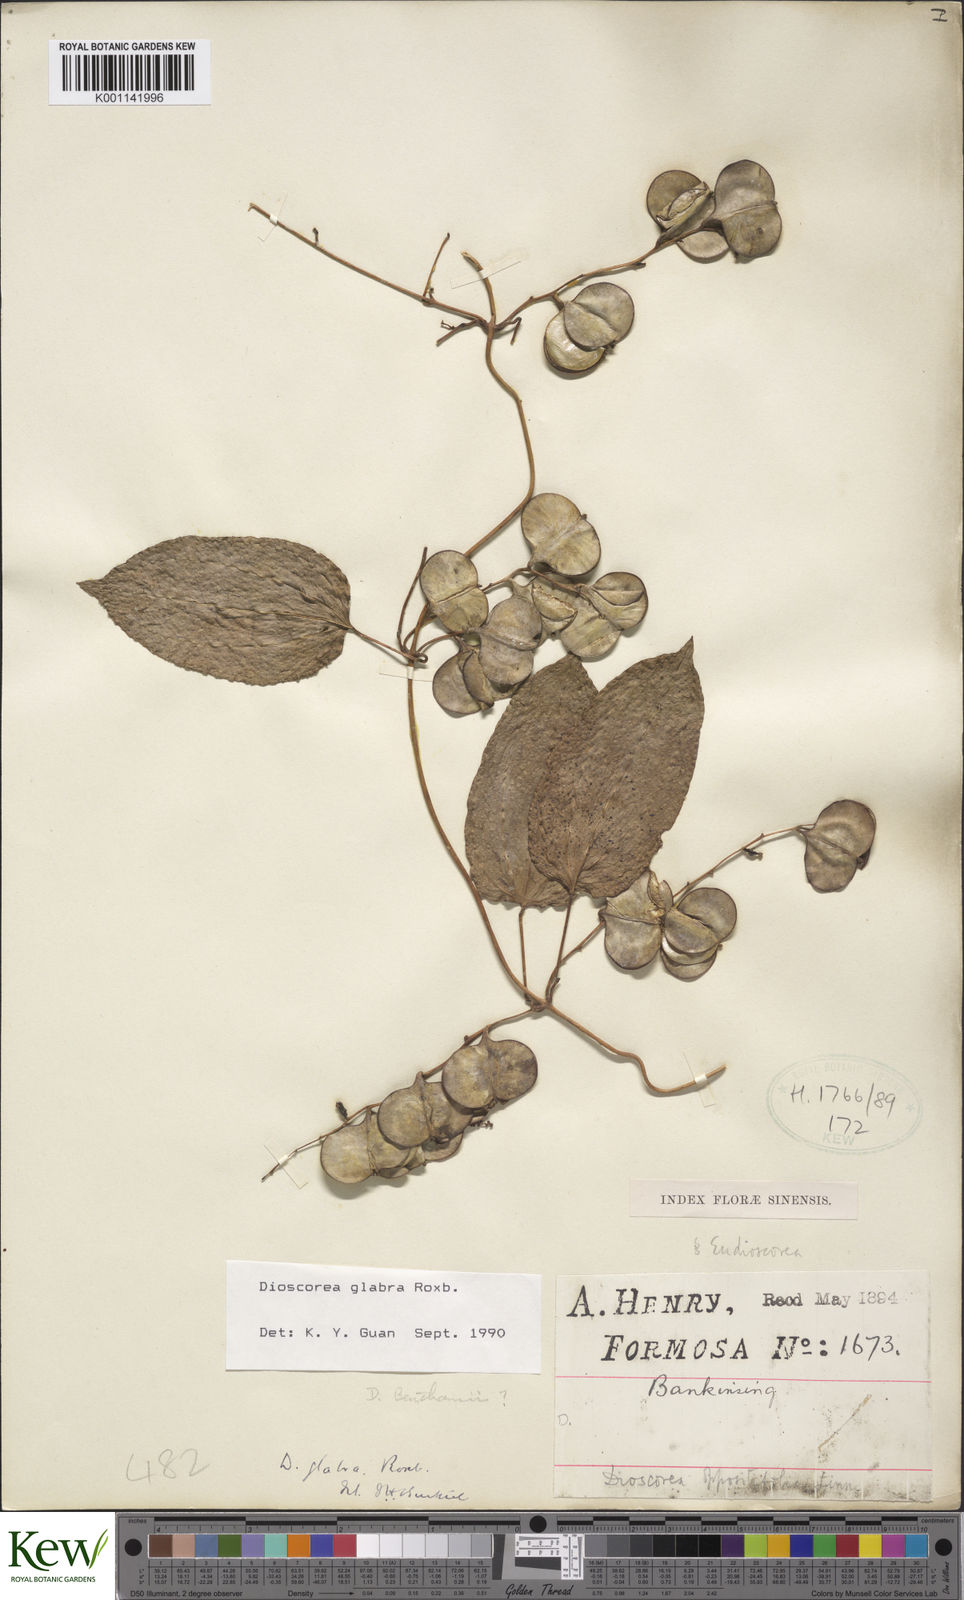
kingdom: Plantae
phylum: Tracheophyta
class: Liliopsida
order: Dioscoreales
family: Dioscoreaceae
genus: Dioscorea
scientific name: Dioscorea glabra
